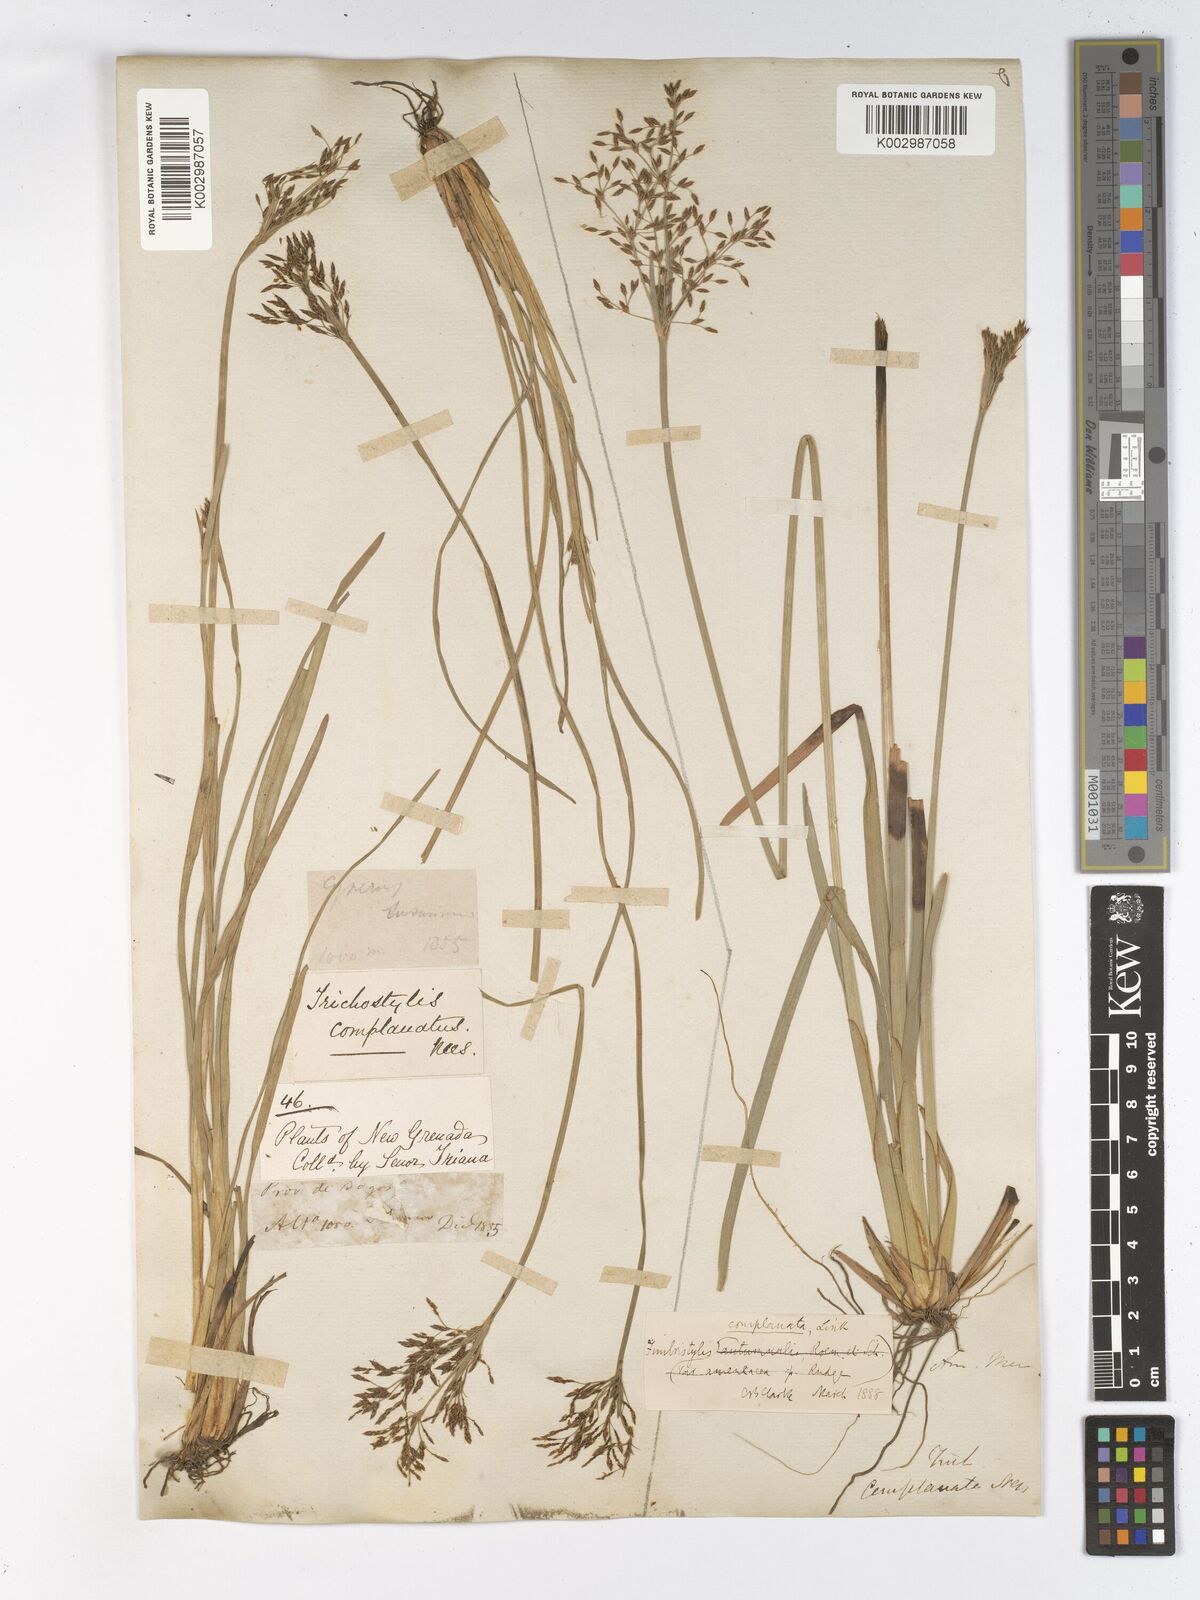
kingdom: Plantae
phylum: Tracheophyta
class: Liliopsida
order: Poales
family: Cyperaceae
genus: Fimbristylis
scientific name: Fimbristylis complanata
